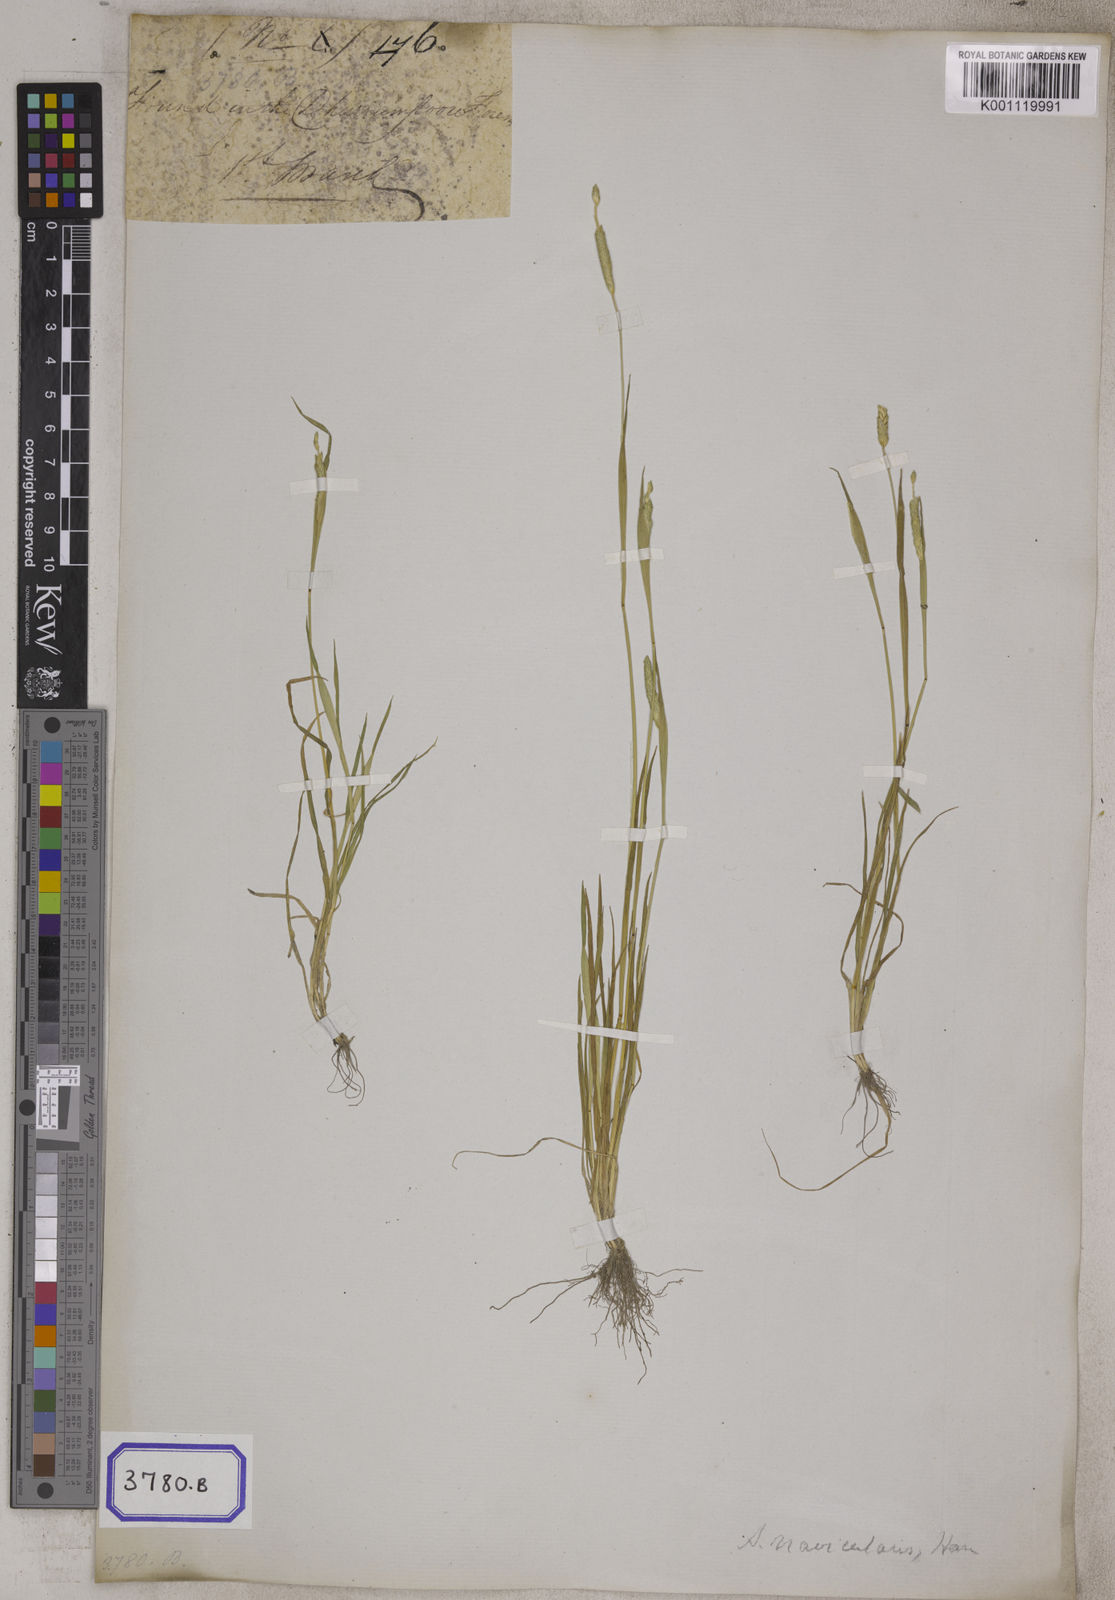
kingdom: Plantae
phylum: Tracheophyta
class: Liliopsida
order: Poales
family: Poaceae
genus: Alopecurus
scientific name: Alopecurus
